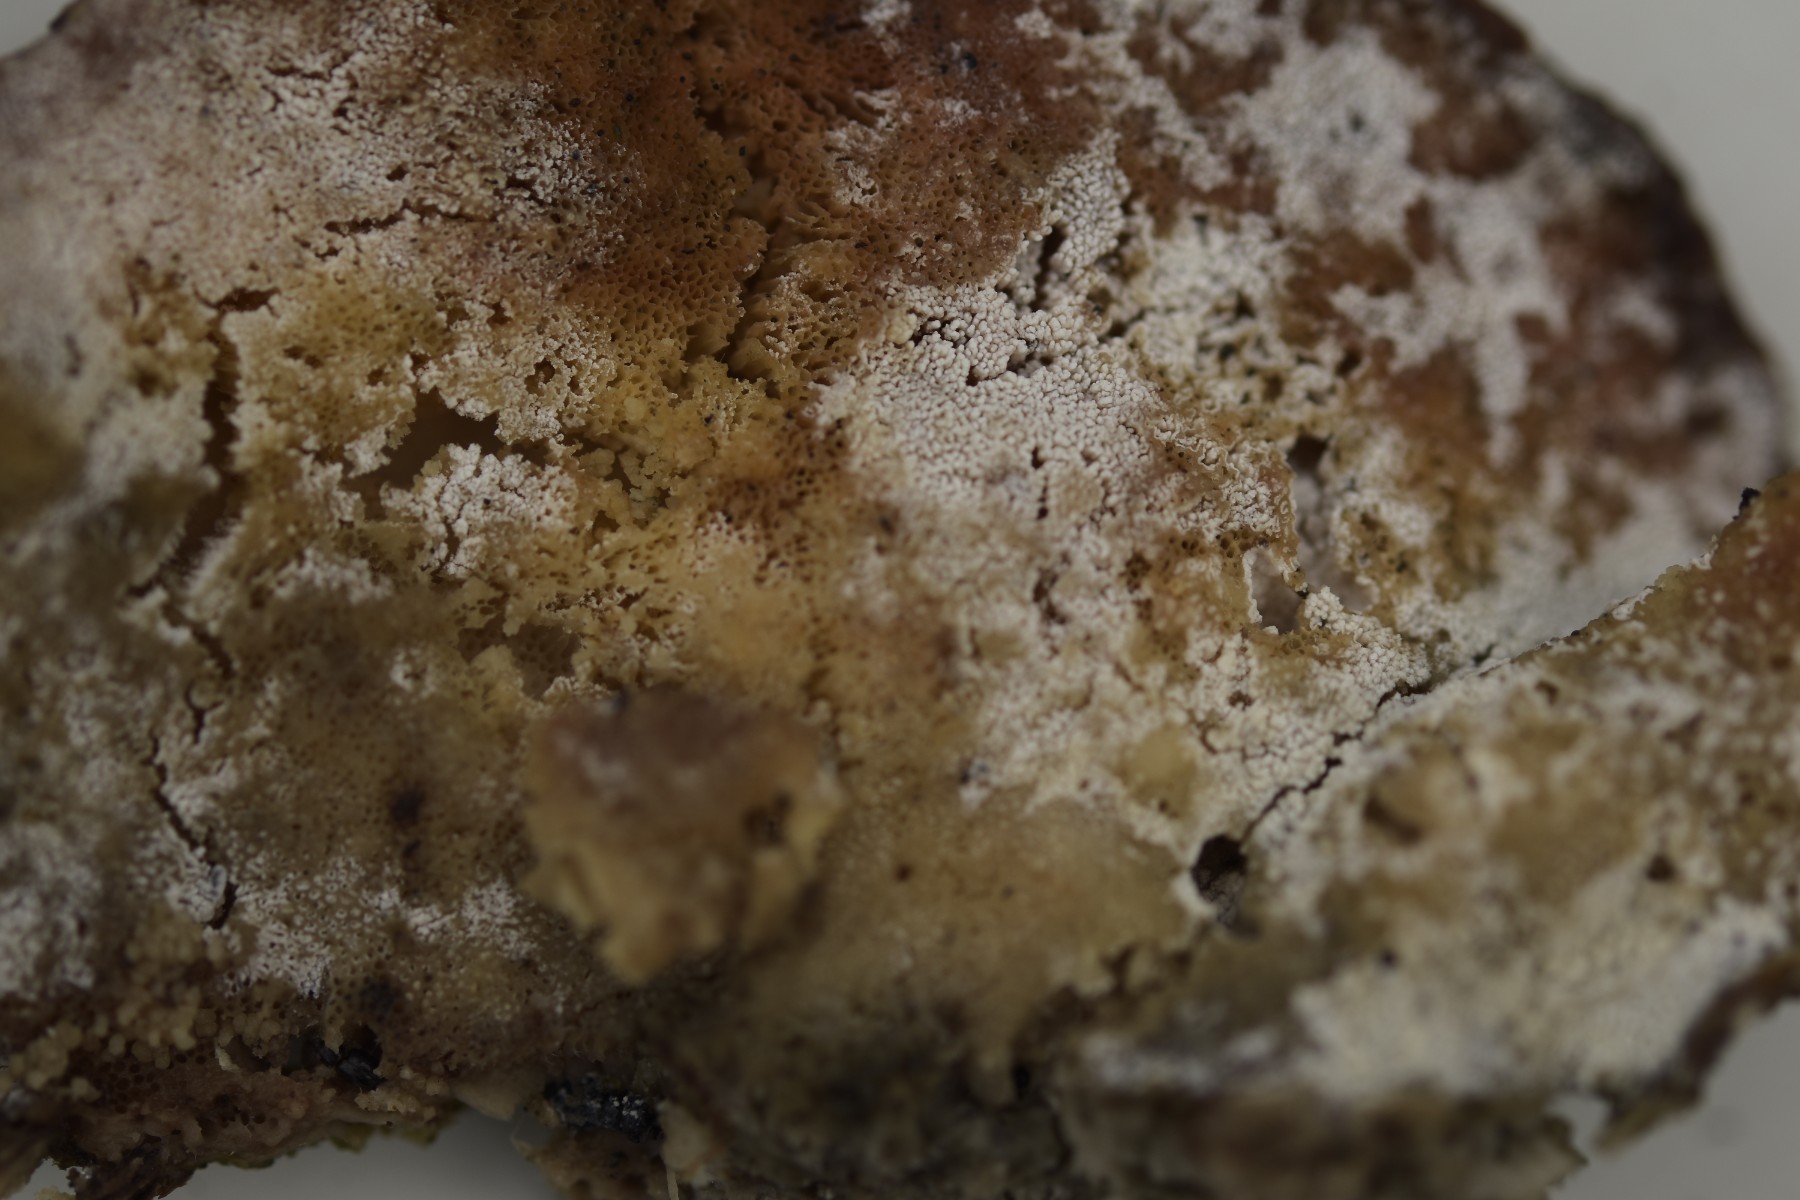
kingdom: Fungi
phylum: Basidiomycota
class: Agaricomycetes
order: Cantharellales
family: Hydnaceae
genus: Sistotrema
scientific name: Sistotrema brinkmannii
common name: bønnesporet kroneskorpe
